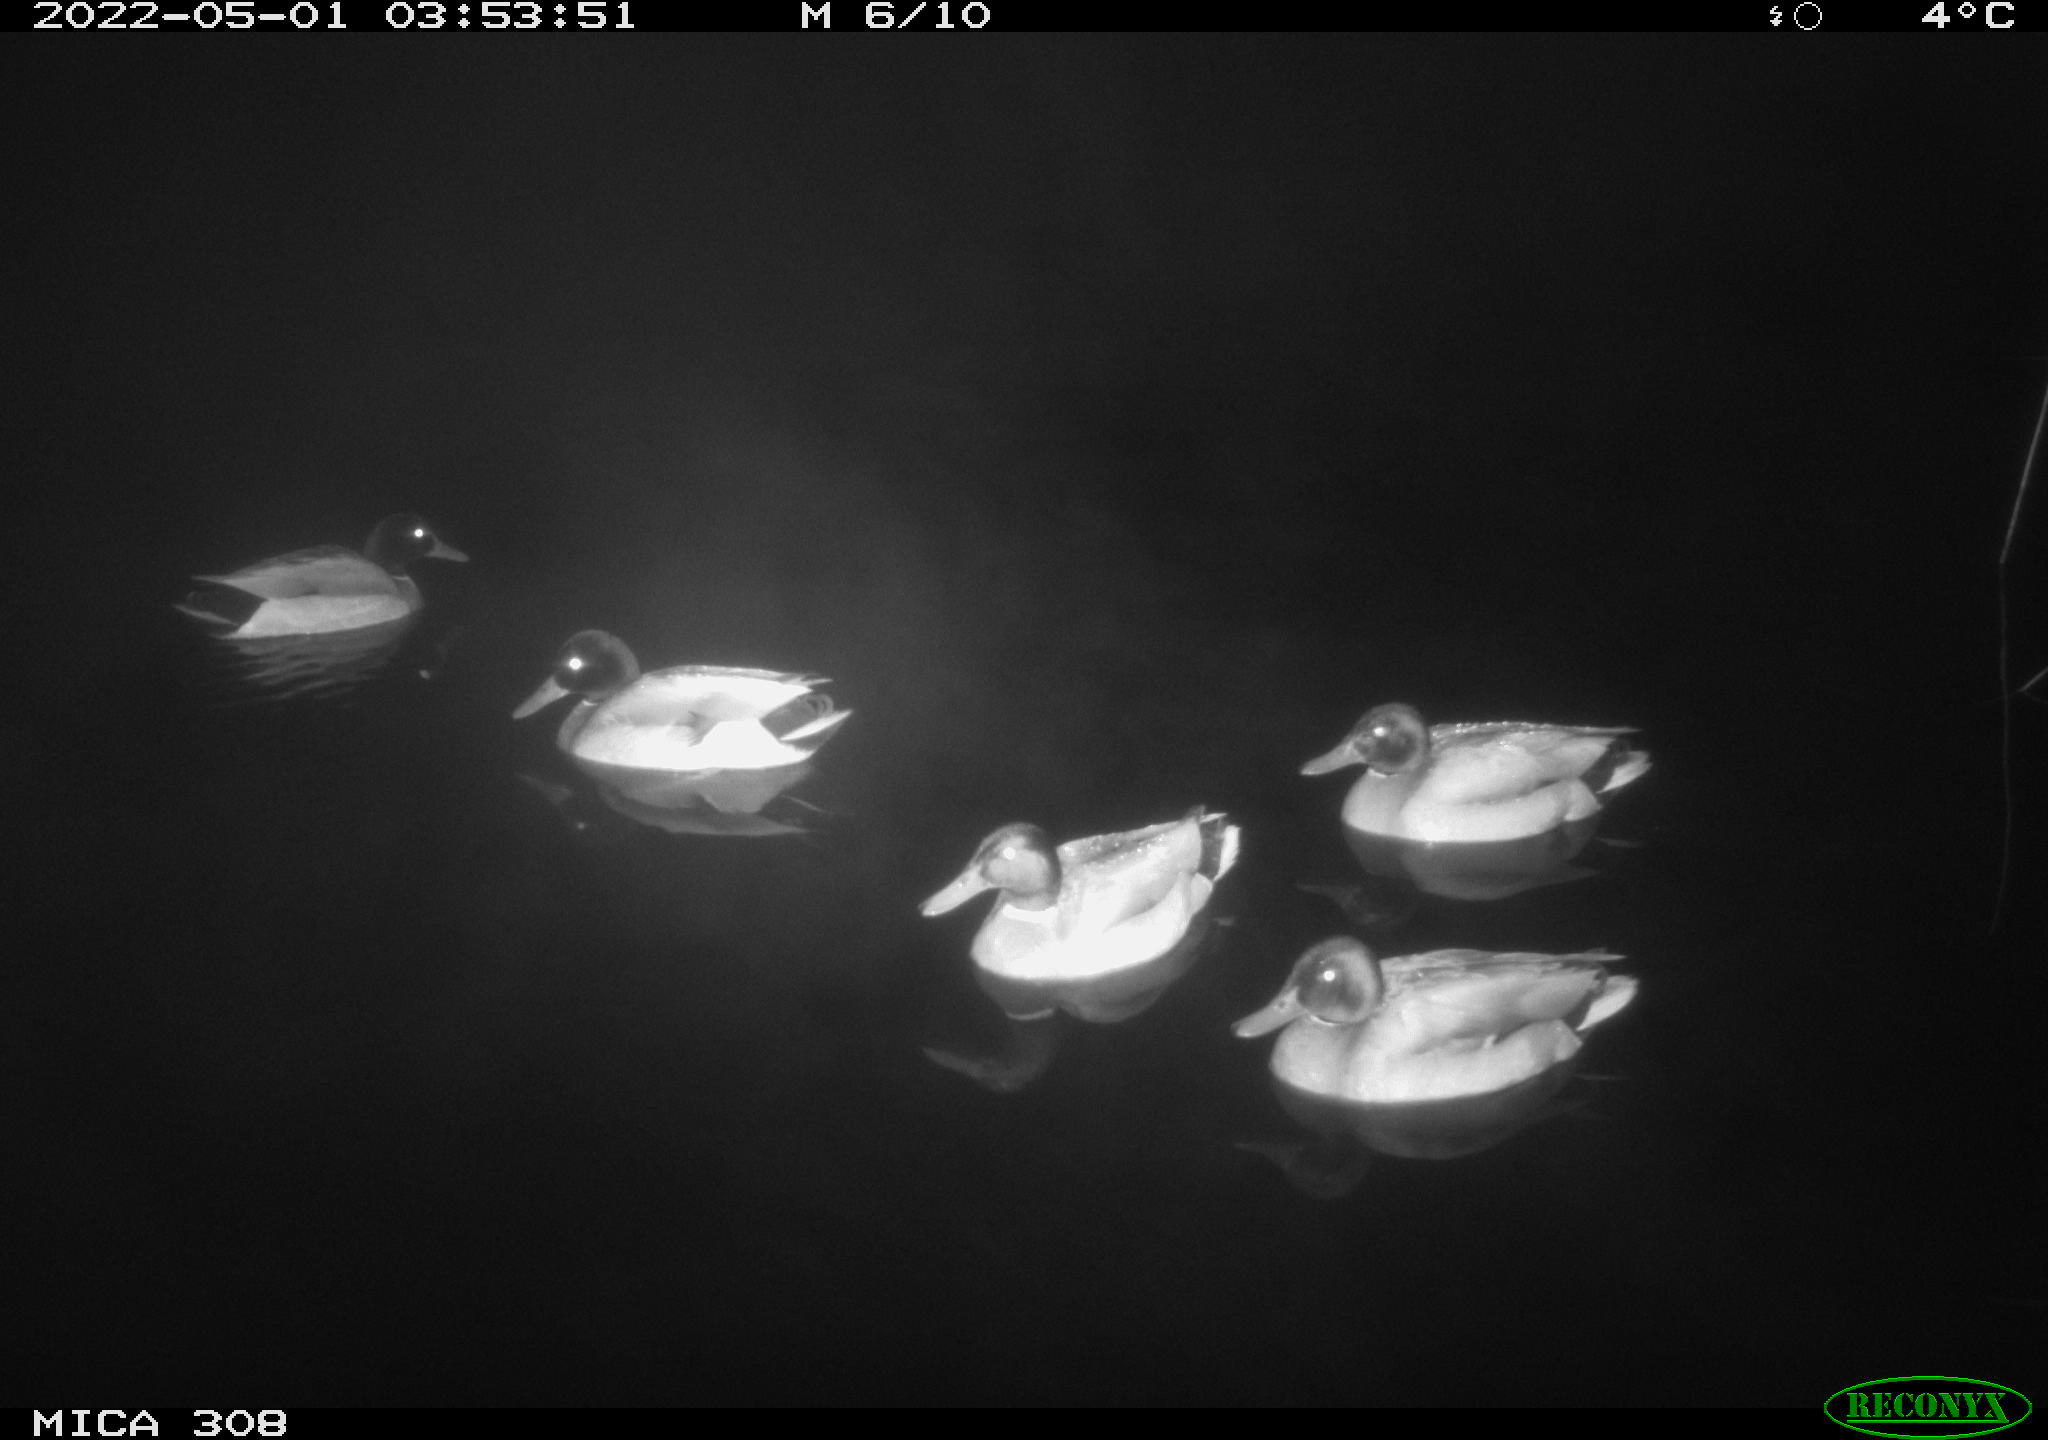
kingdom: Animalia
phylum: Chordata
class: Aves
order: Anseriformes
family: Anatidae
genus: Anas
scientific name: Anas platyrhynchos
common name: Mallard
